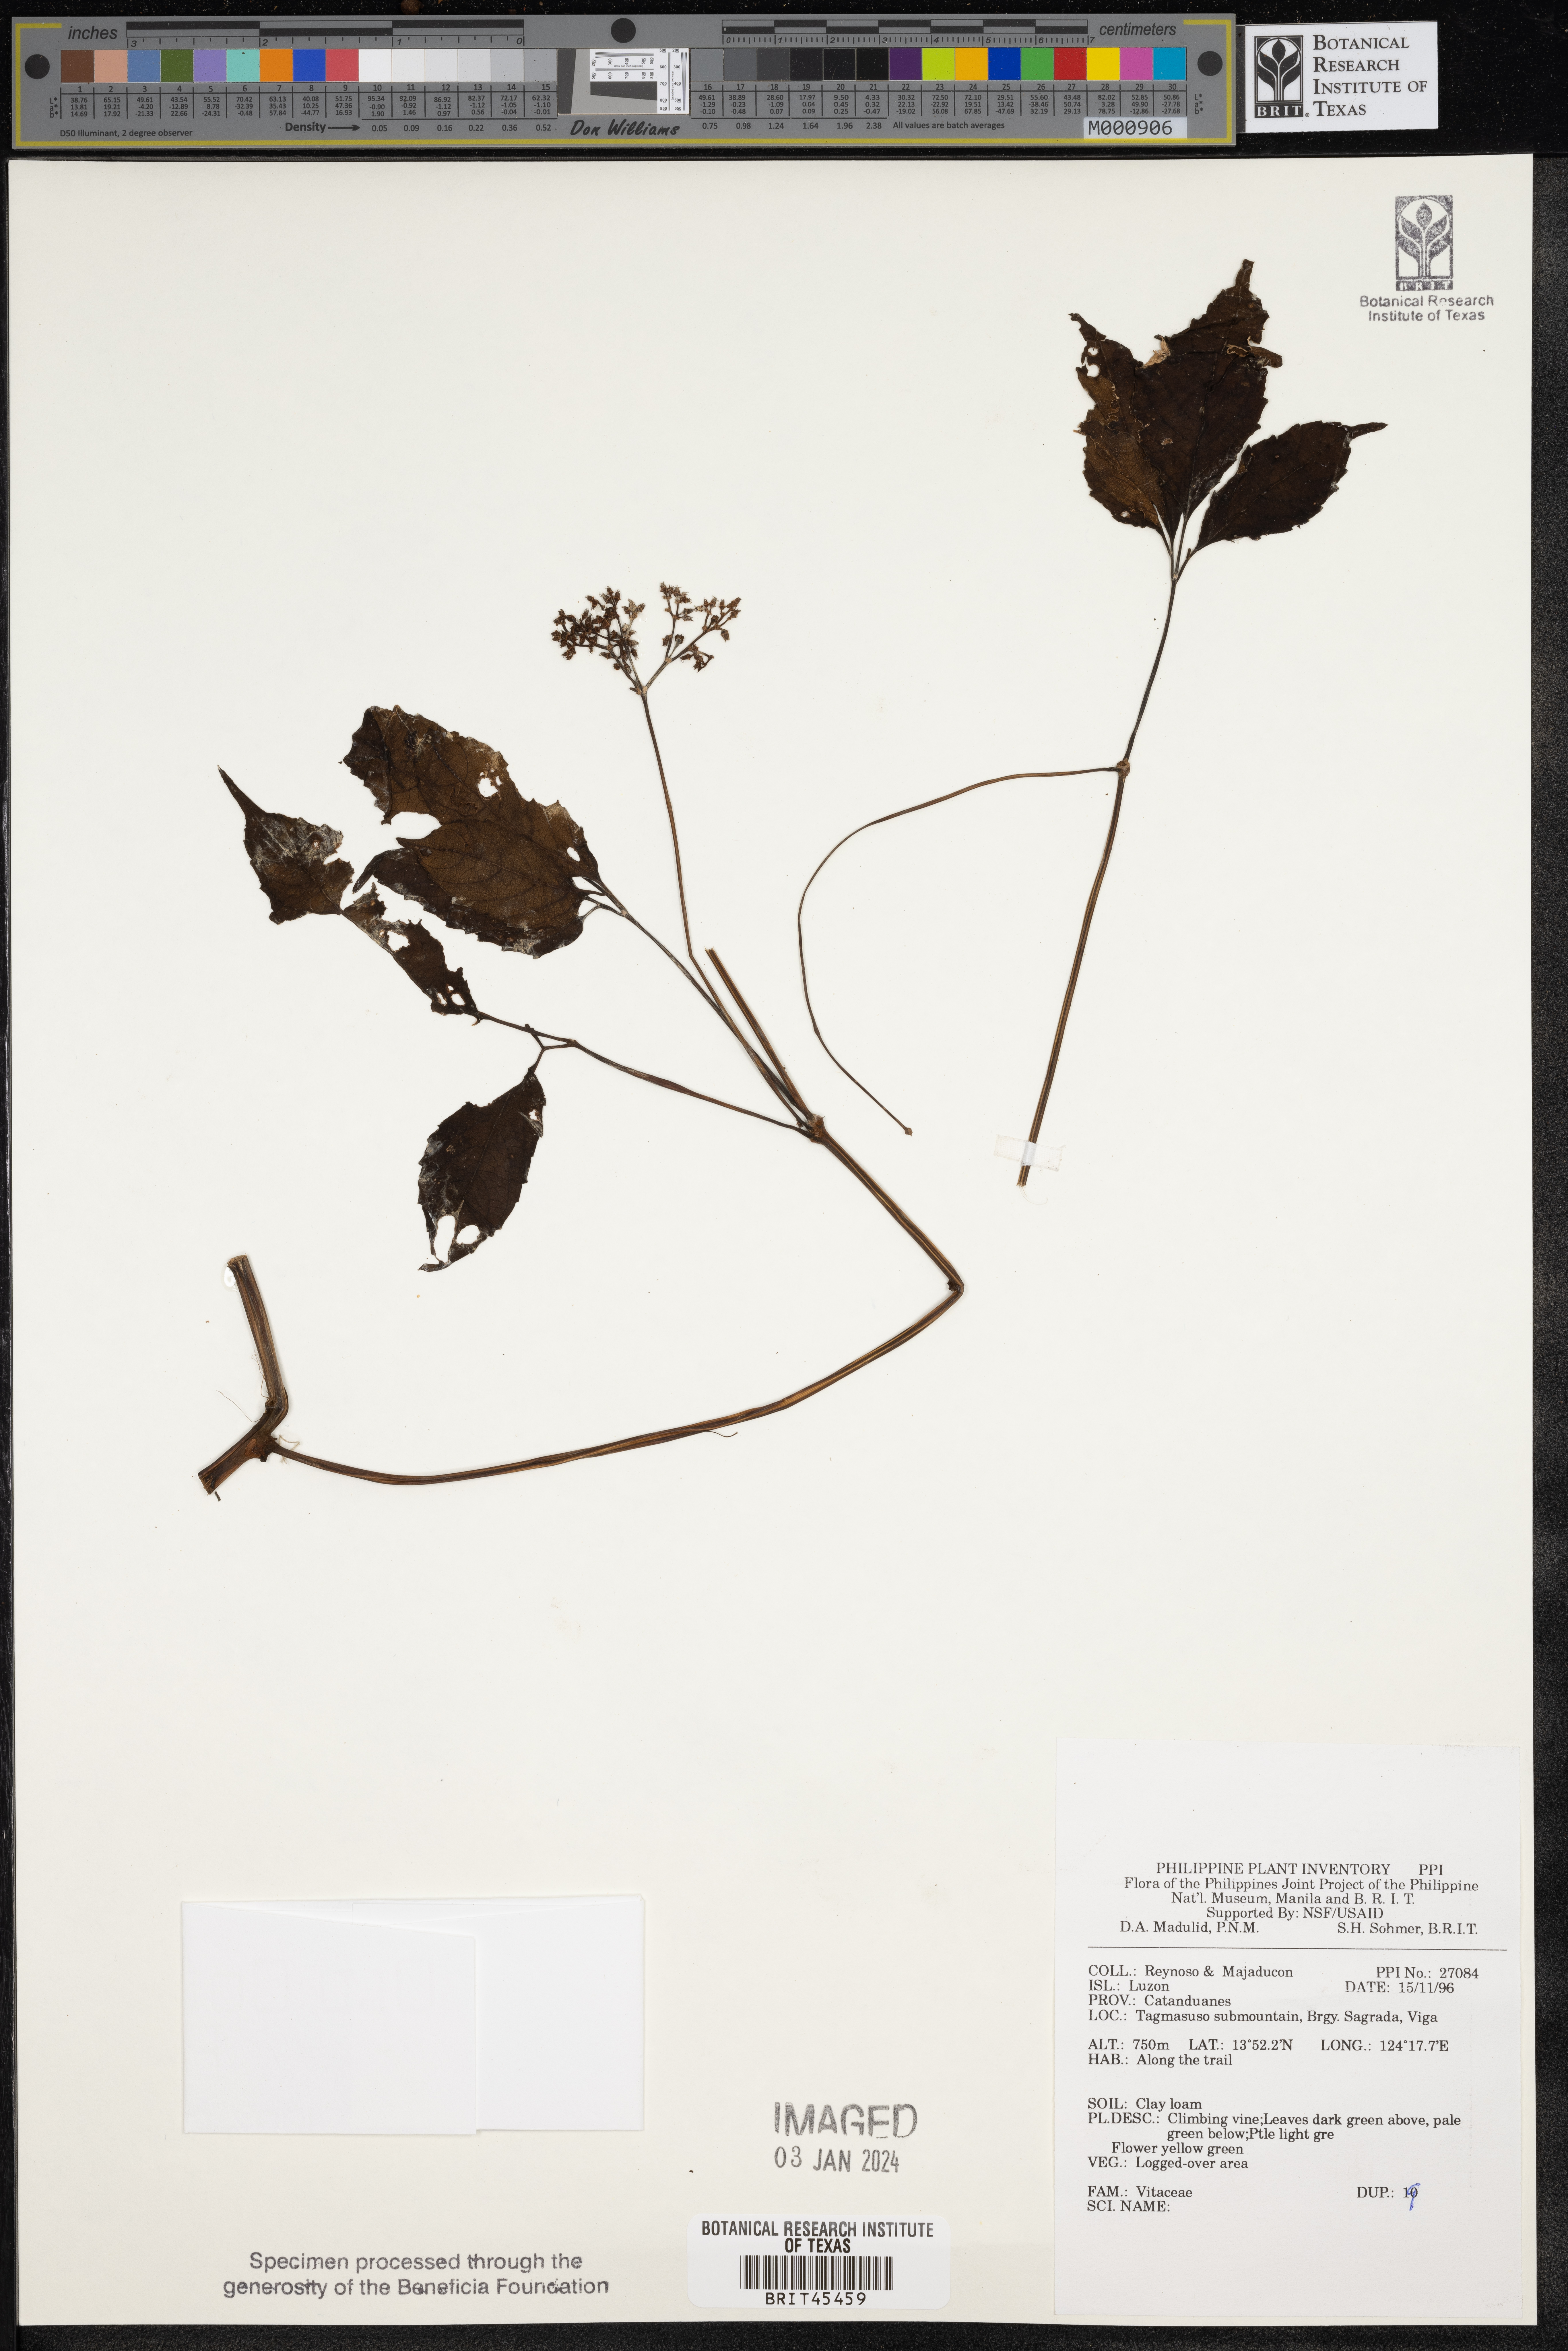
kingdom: Plantae
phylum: Tracheophyta
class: Magnoliopsida
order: Vitales
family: Vitaceae
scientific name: Vitaceae
